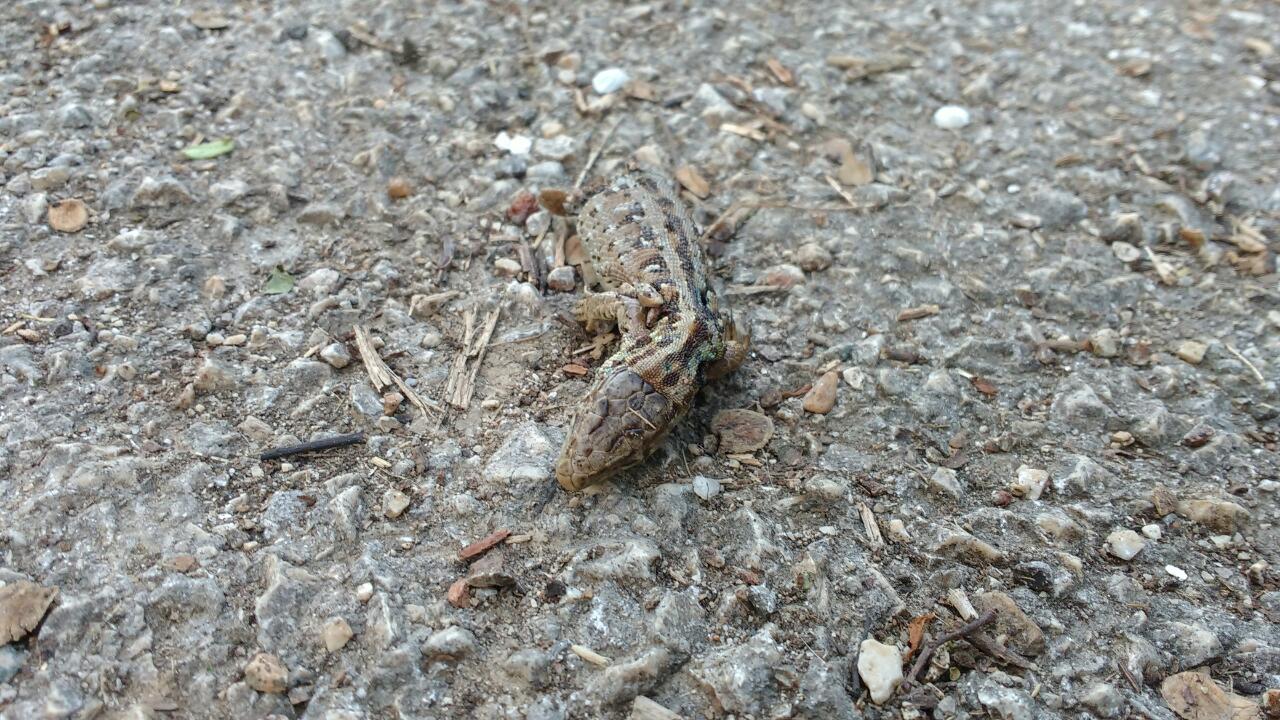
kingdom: Animalia
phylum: Chordata
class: Squamata
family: Lacertidae
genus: Lacerta
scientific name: Lacerta agilis
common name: Sand lizard
